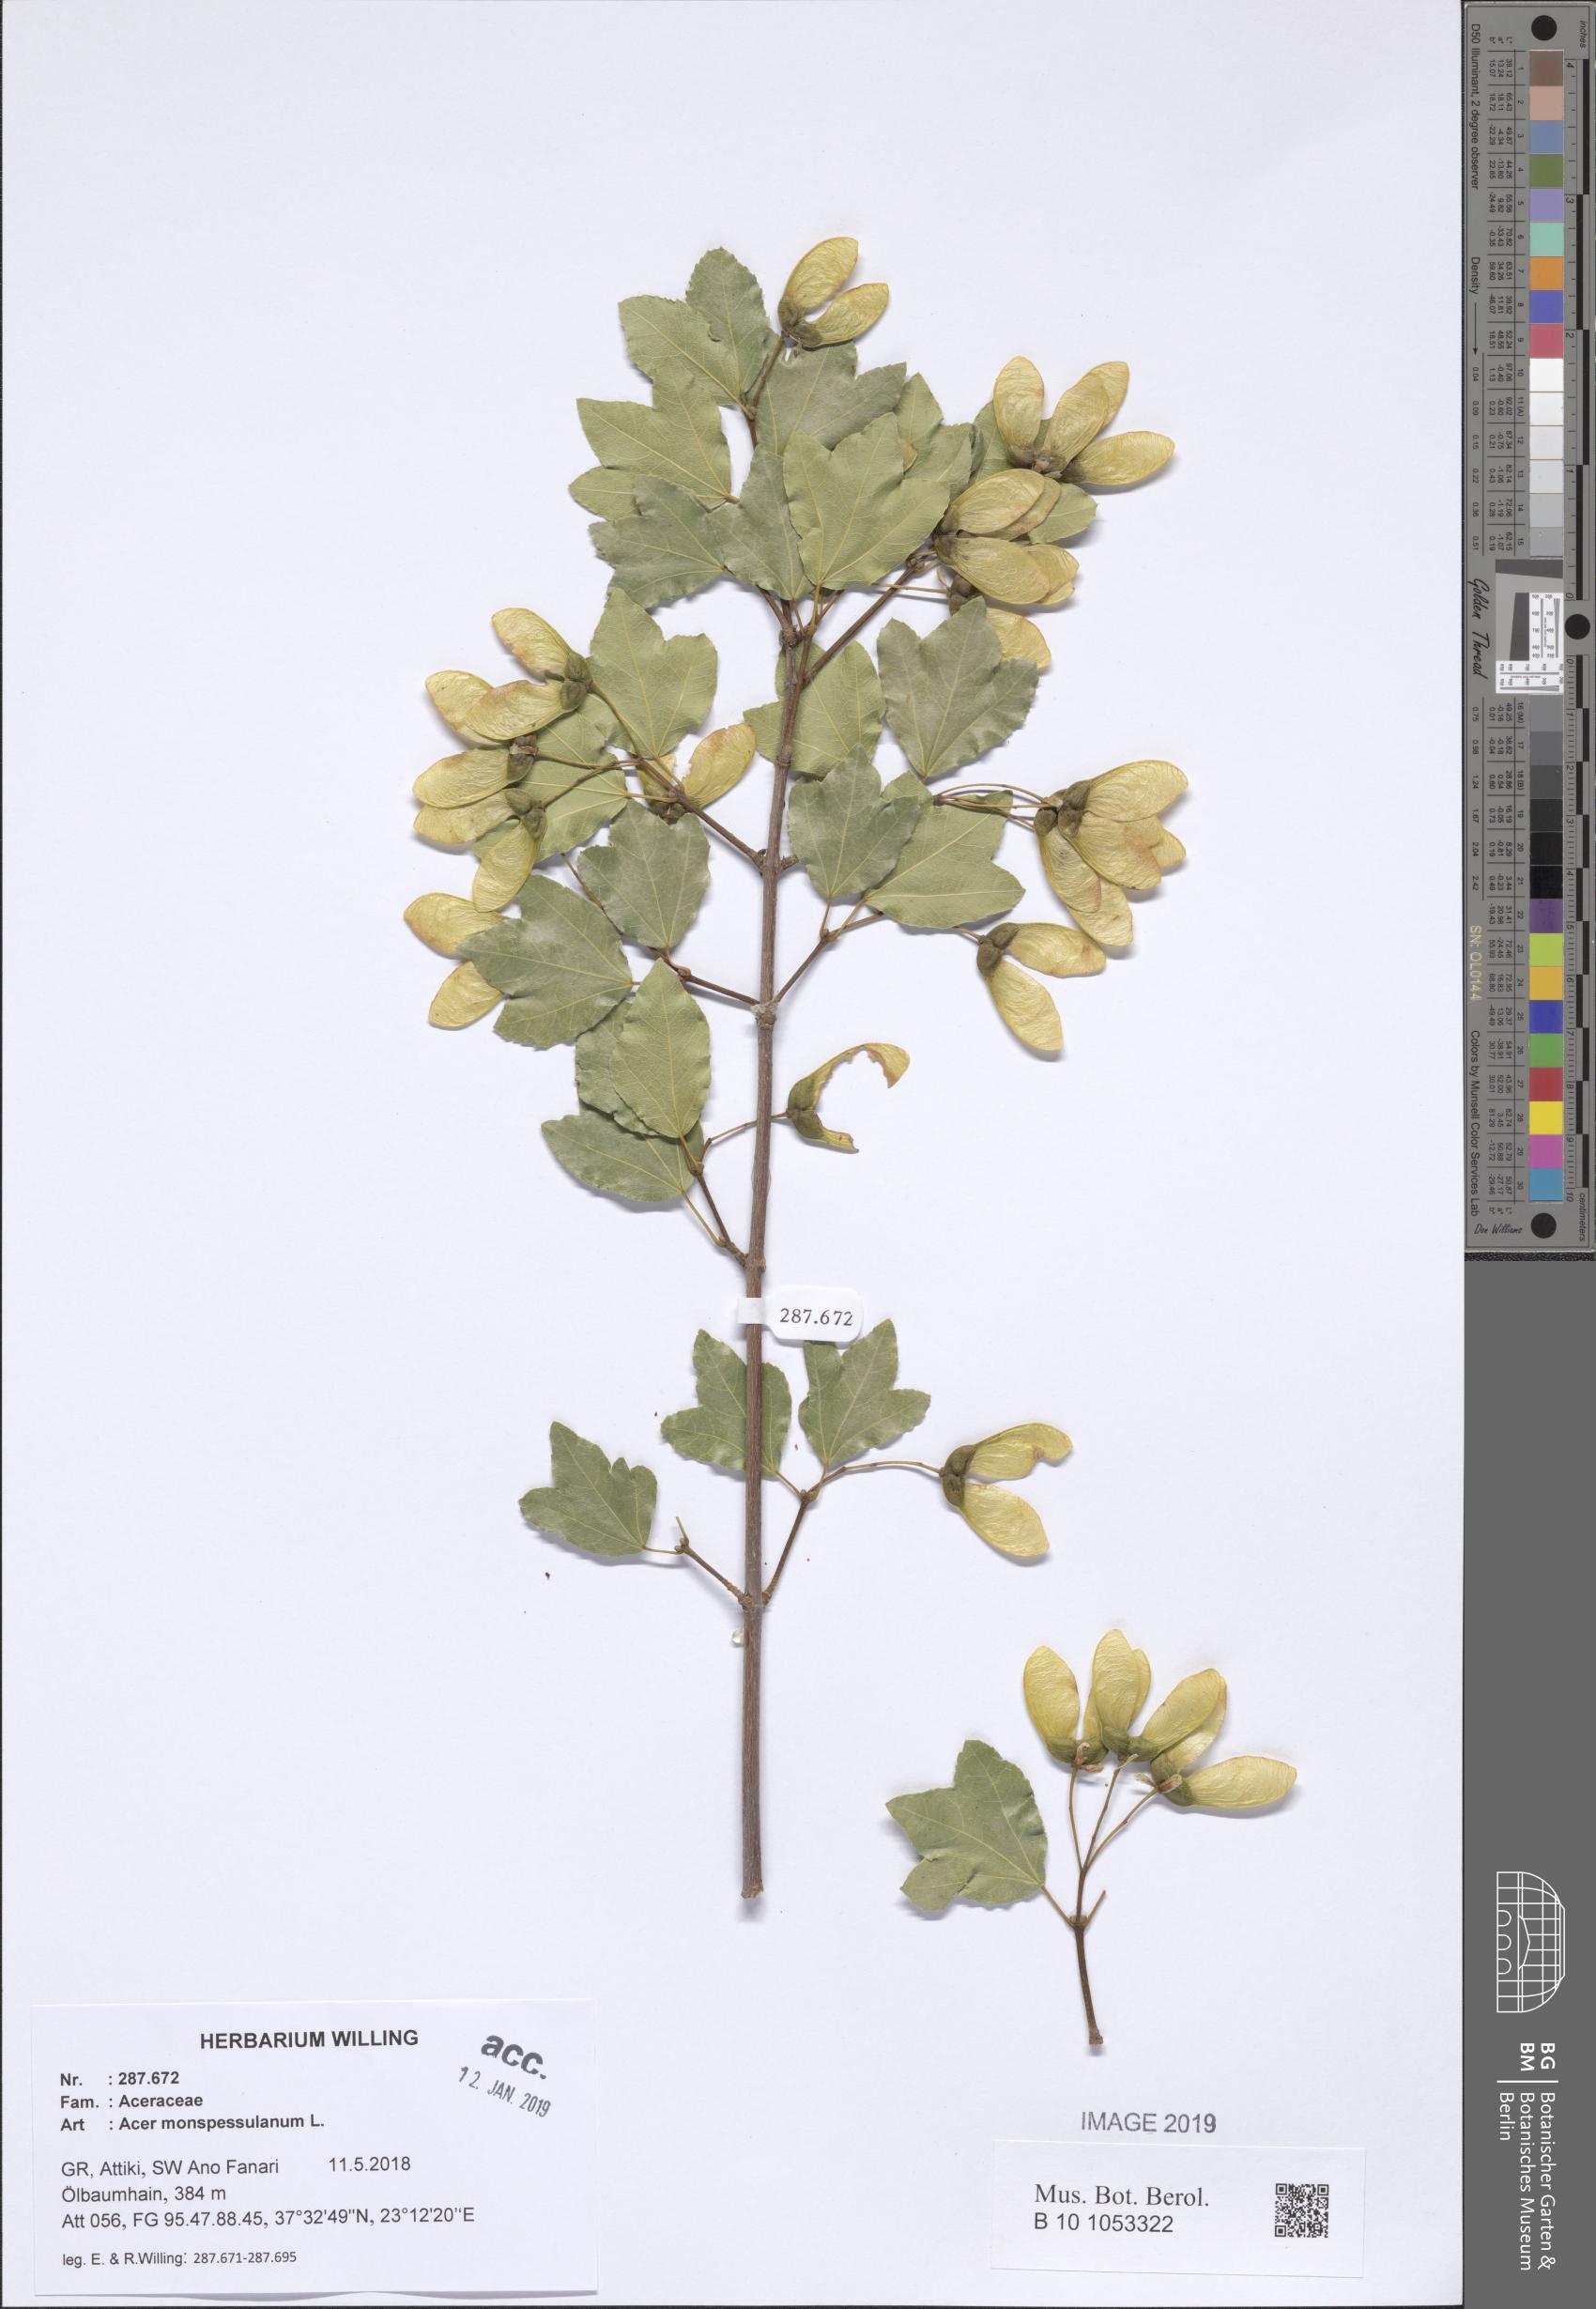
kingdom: Plantae
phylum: Tracheophyta
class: Magnoliopsida
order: Sapindales
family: Sapindaceae
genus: Acer
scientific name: Acer monspessulanum
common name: Montpellier maple
